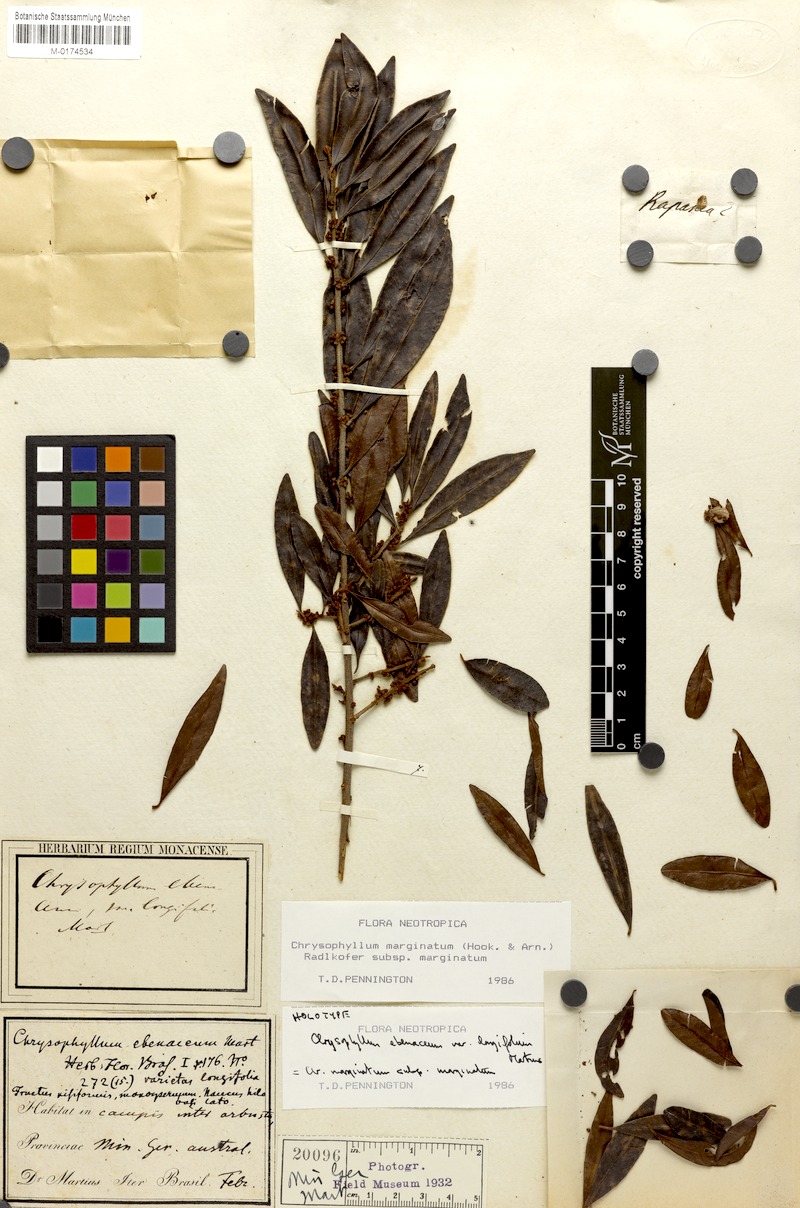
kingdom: Plantae
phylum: Tracheophyta
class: Magnoliopsida
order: Ericales
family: Sapotaceae
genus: Chrysophyllum
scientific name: Chrysophyllum marginatum
